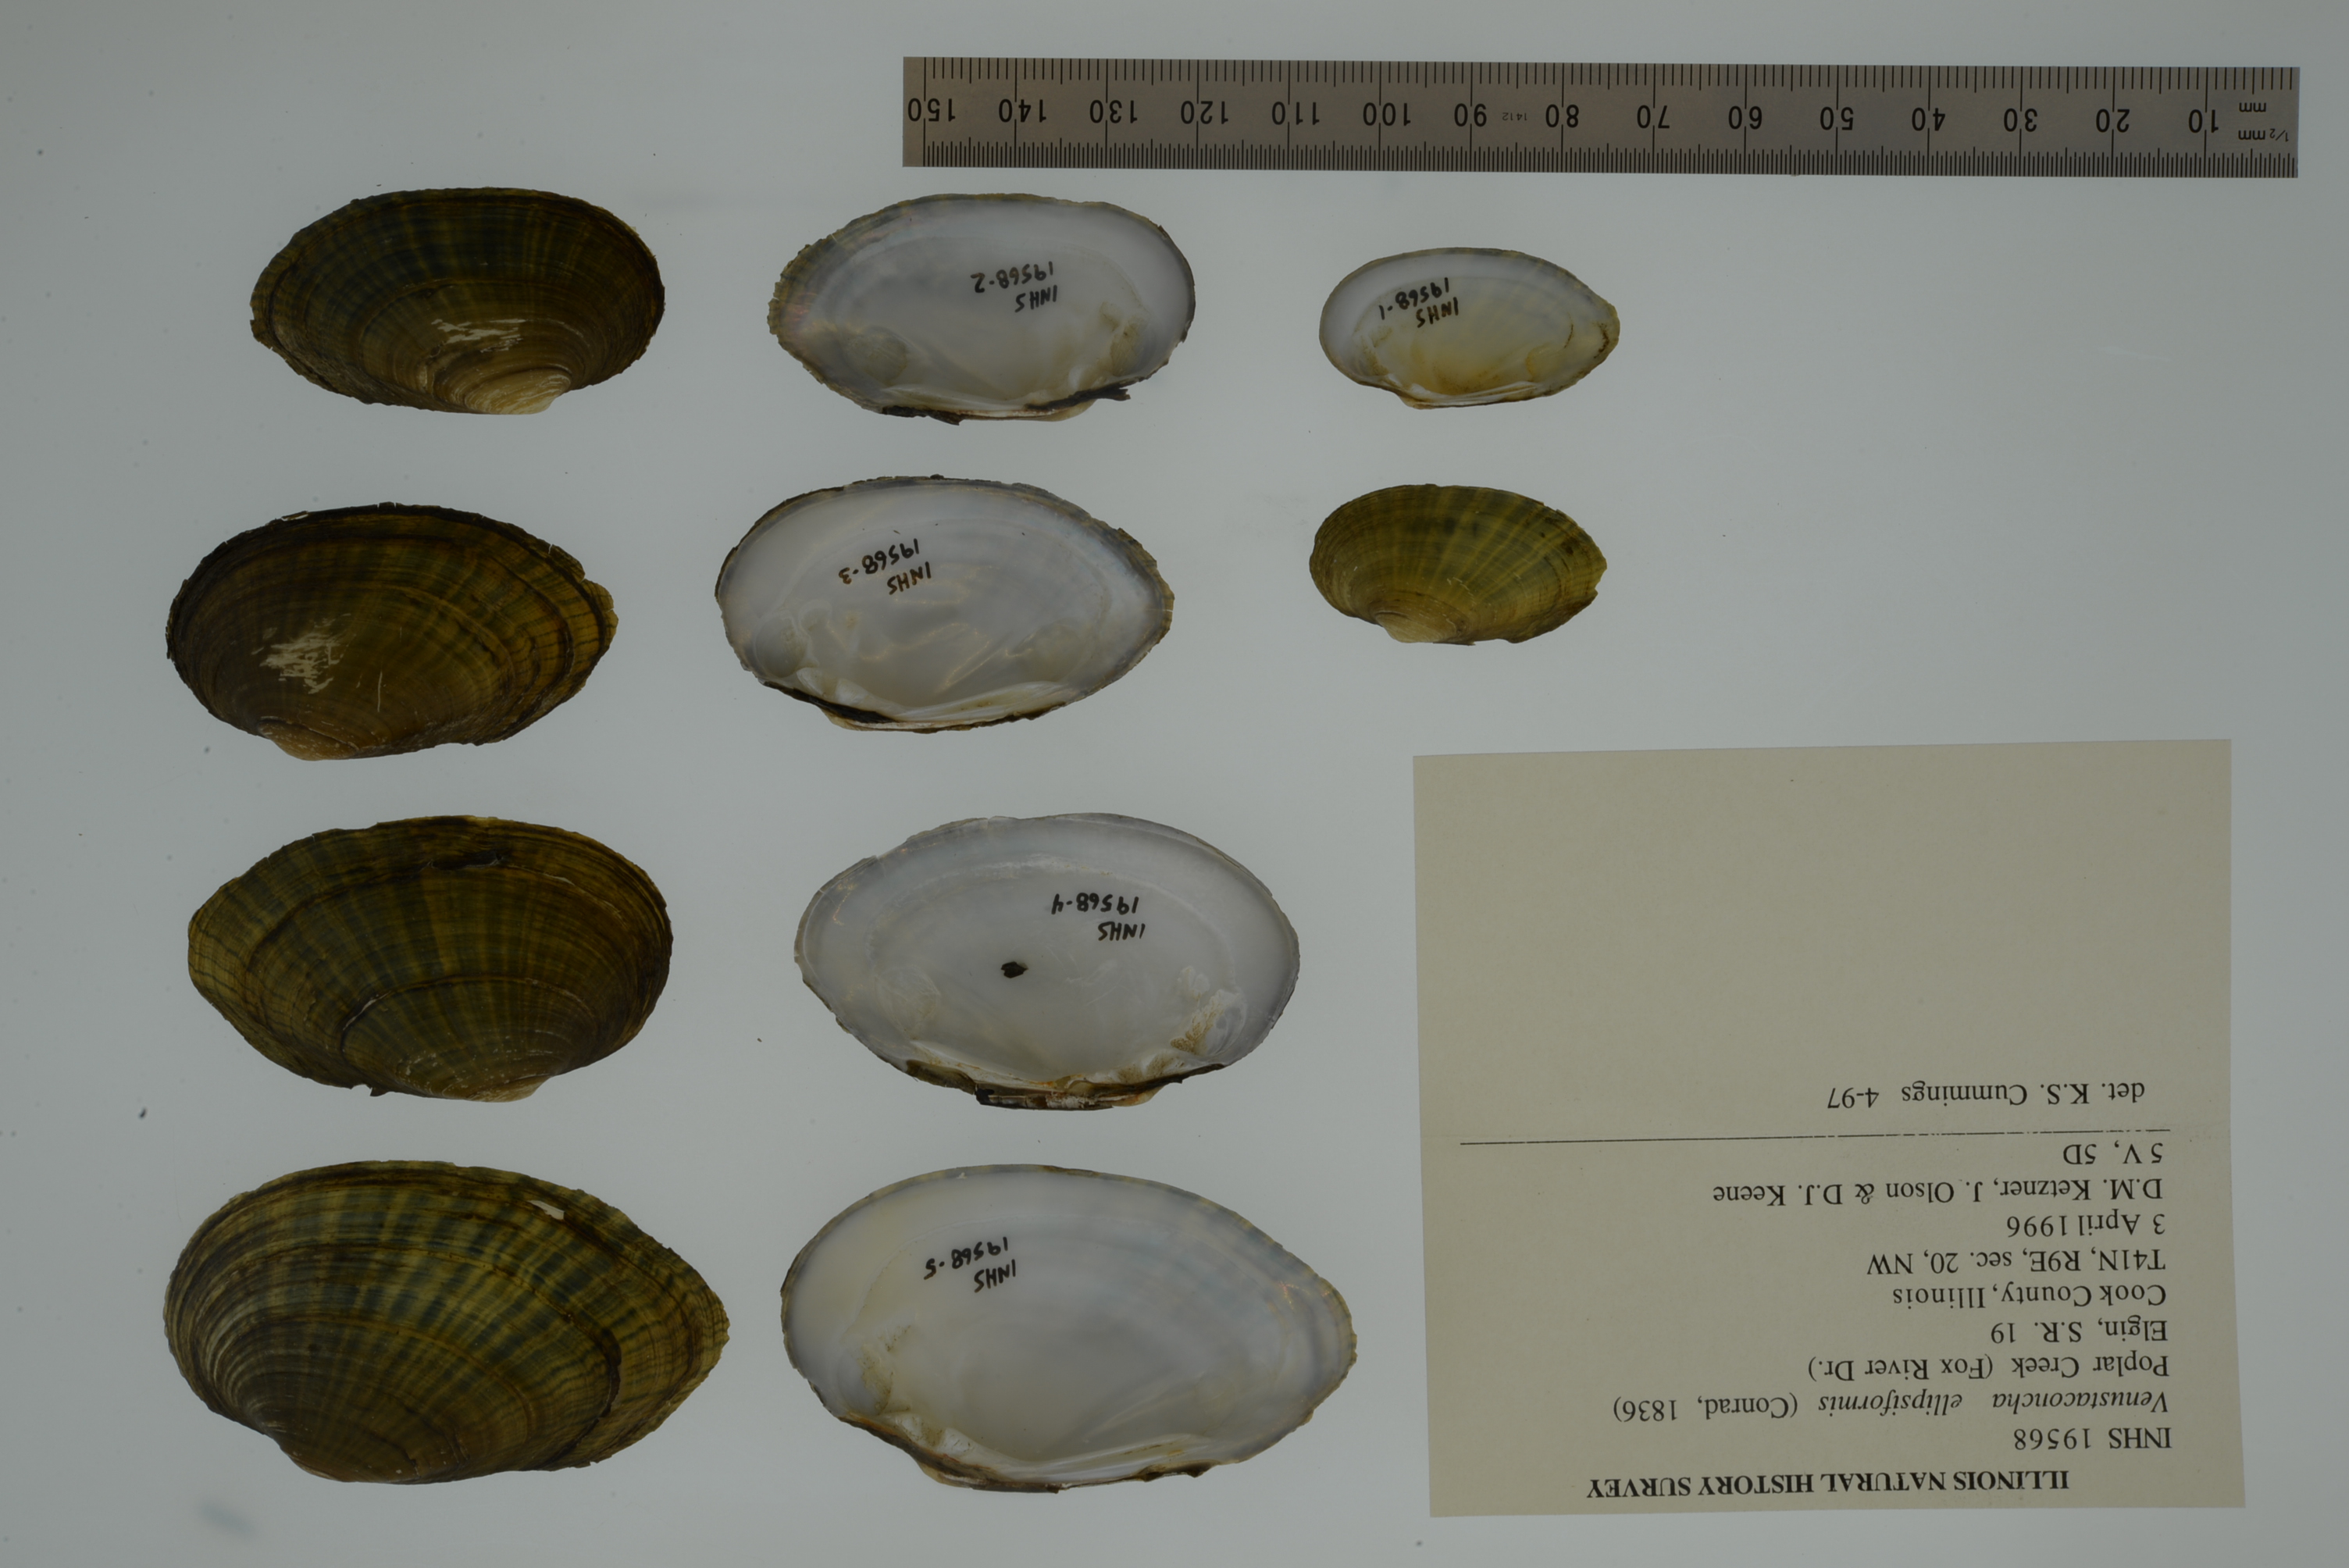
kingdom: Animalia
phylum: Mollusca
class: Bivalvia
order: Unionida
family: Unionidae
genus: Venustaconcha
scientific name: Venustaconcha ellipsiformis
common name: Ellipse
